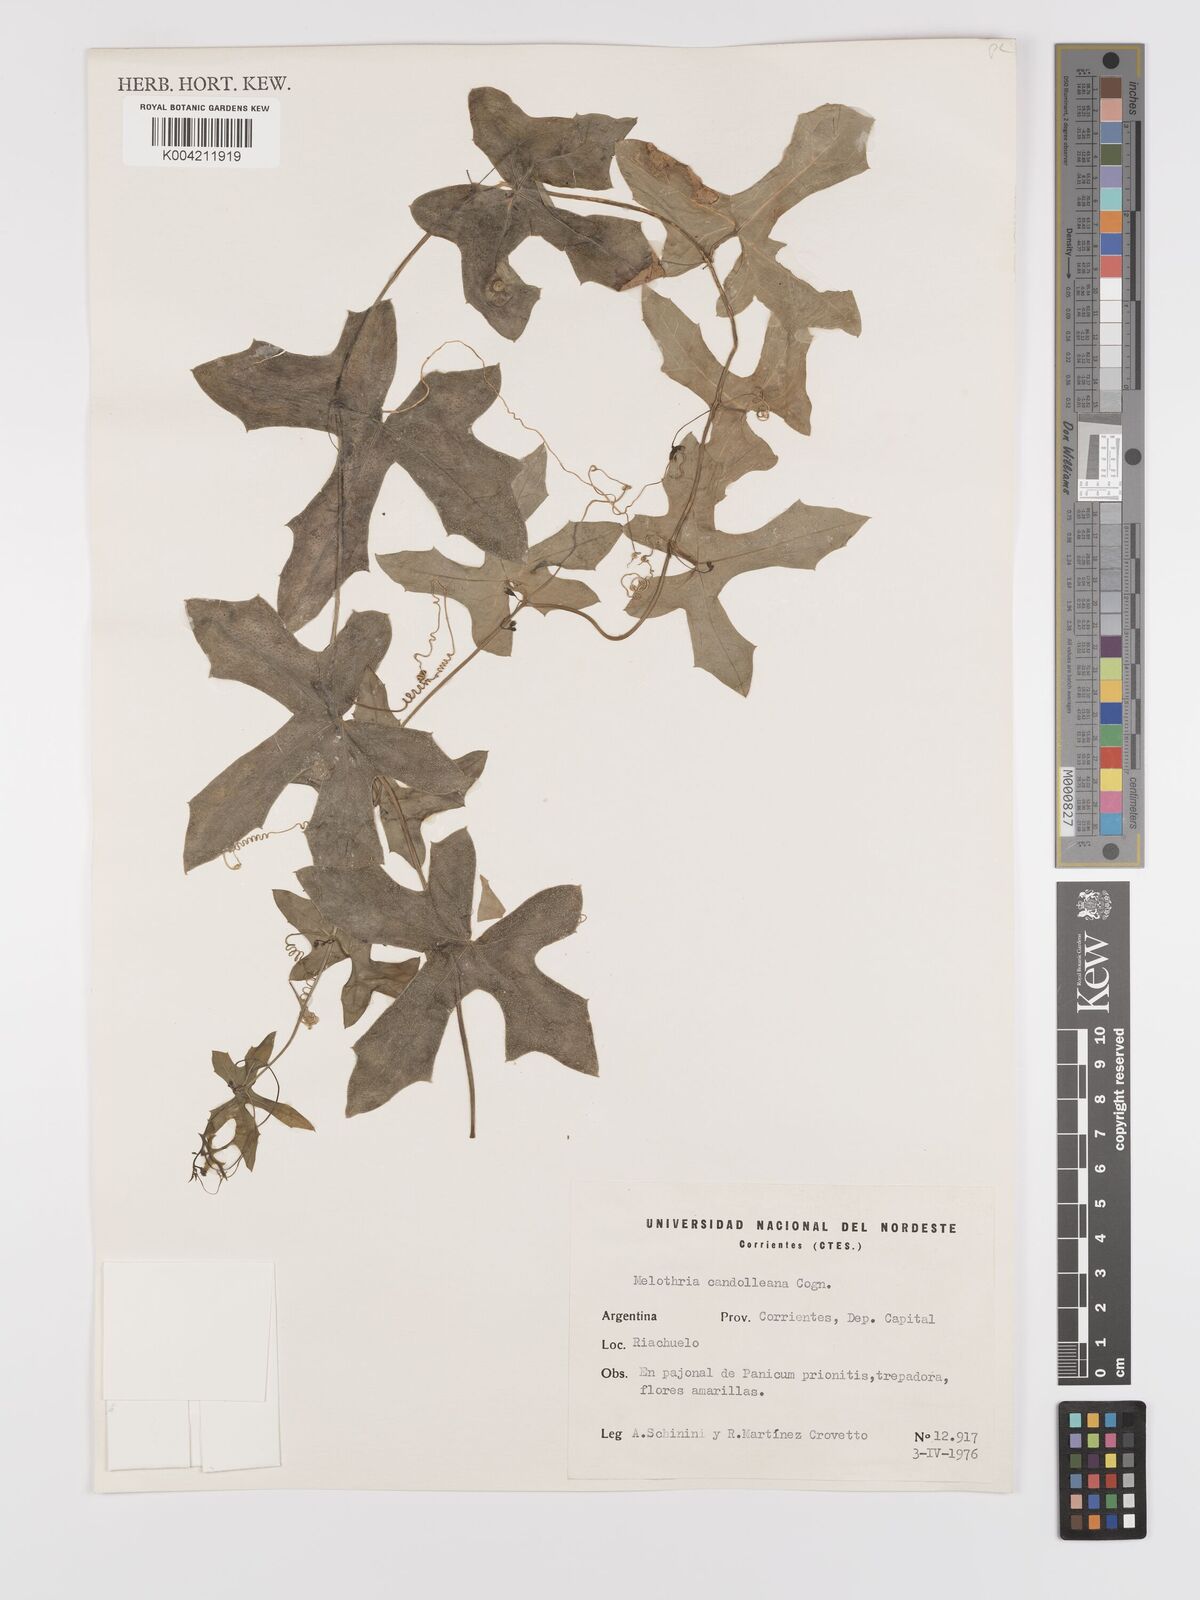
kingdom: Plantae
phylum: Tracheophyta
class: Magnoliopsida
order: Cucurbitales
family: Cucurbitaceae
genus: Melothria
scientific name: Melothria candolleana
